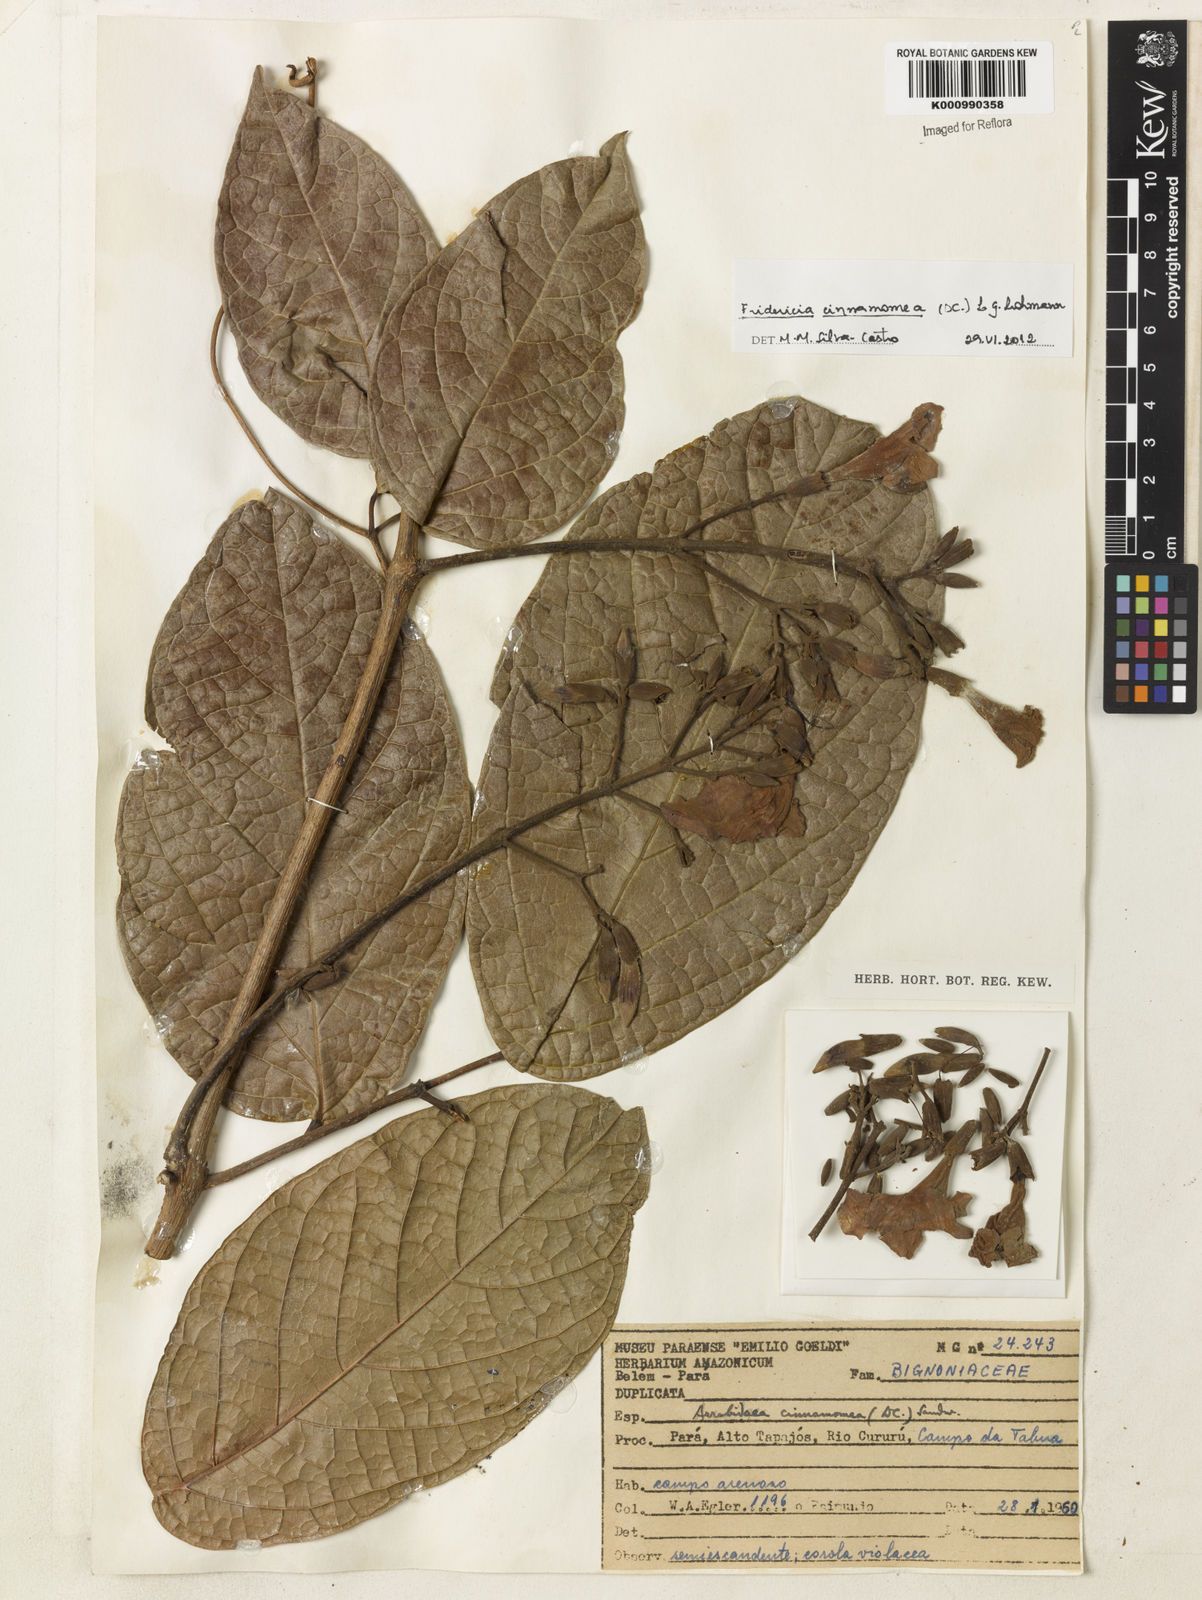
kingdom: Plantae
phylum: Tracheophyta
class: Magnoliopsida
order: Lamiales
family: Bignoniaceae
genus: Fridericia
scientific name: Fridericia cinnamomea
